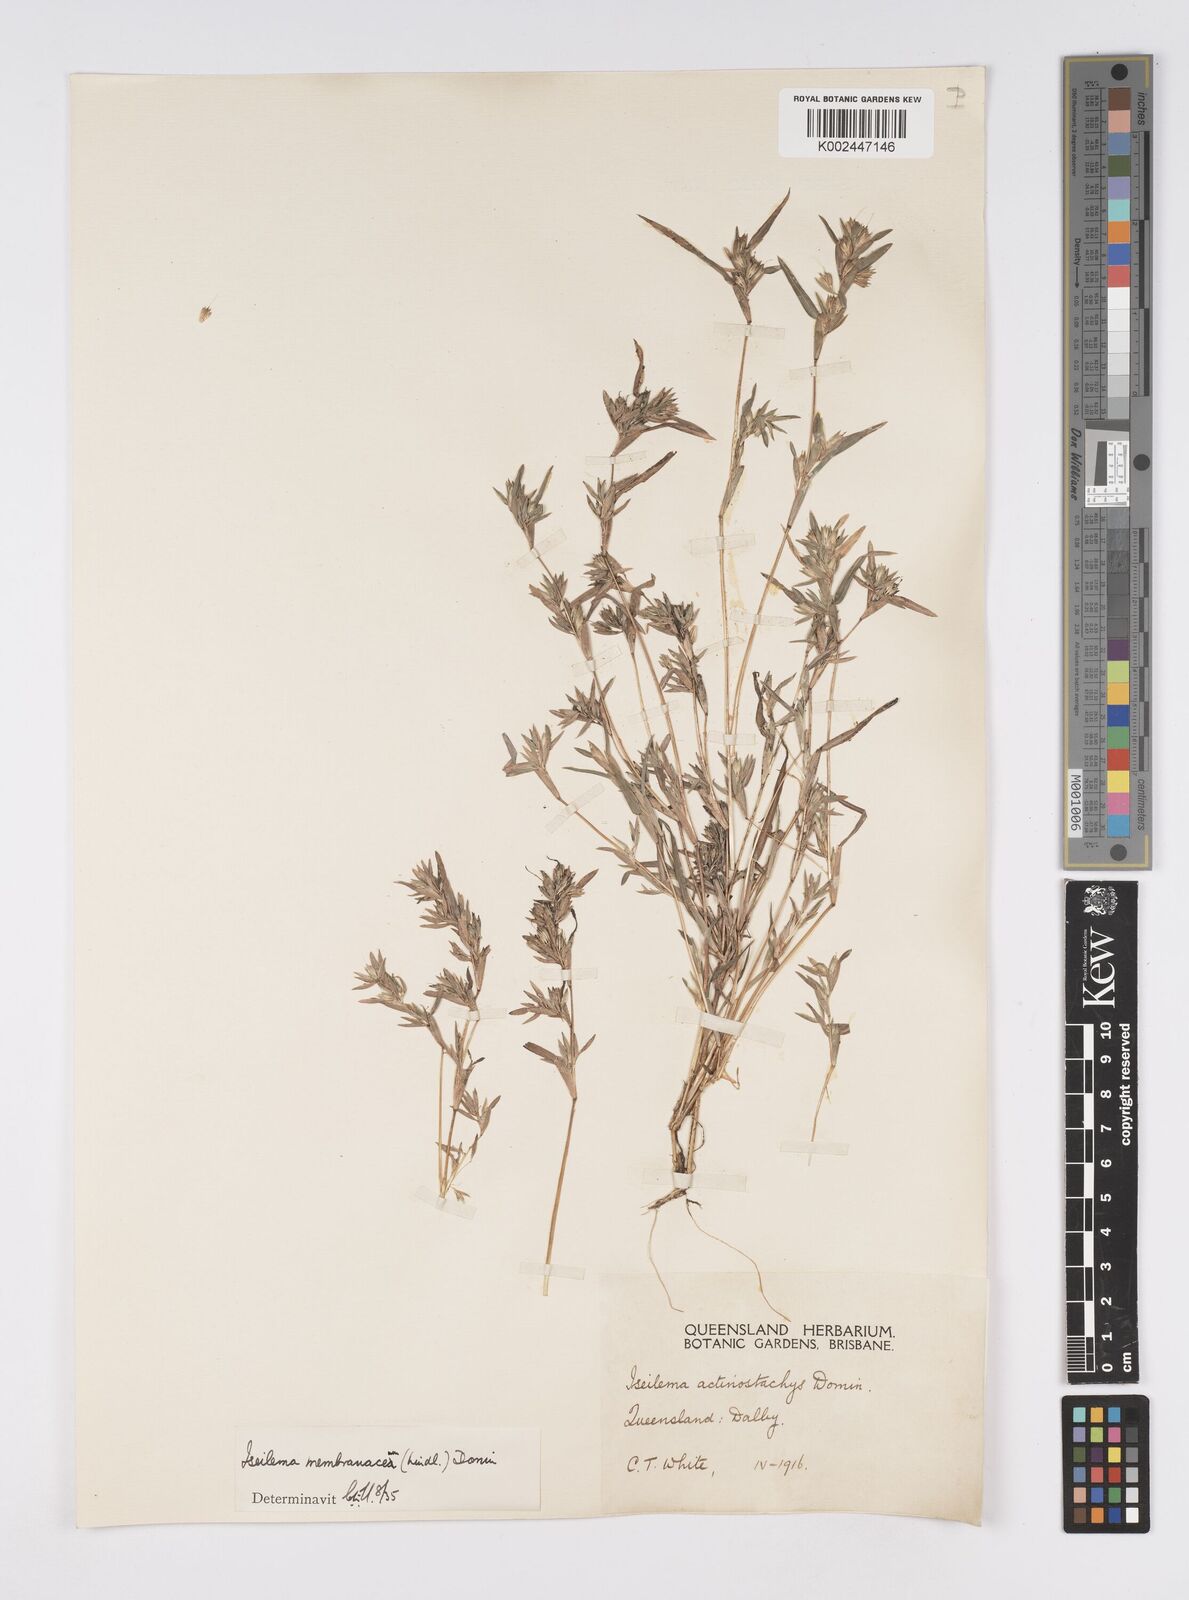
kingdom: Plantae
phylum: Tracheophyta
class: Liliopsida
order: Poales
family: Poaceae
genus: Iseilema
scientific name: Iseilema membranaceum
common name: Small flinders grass
